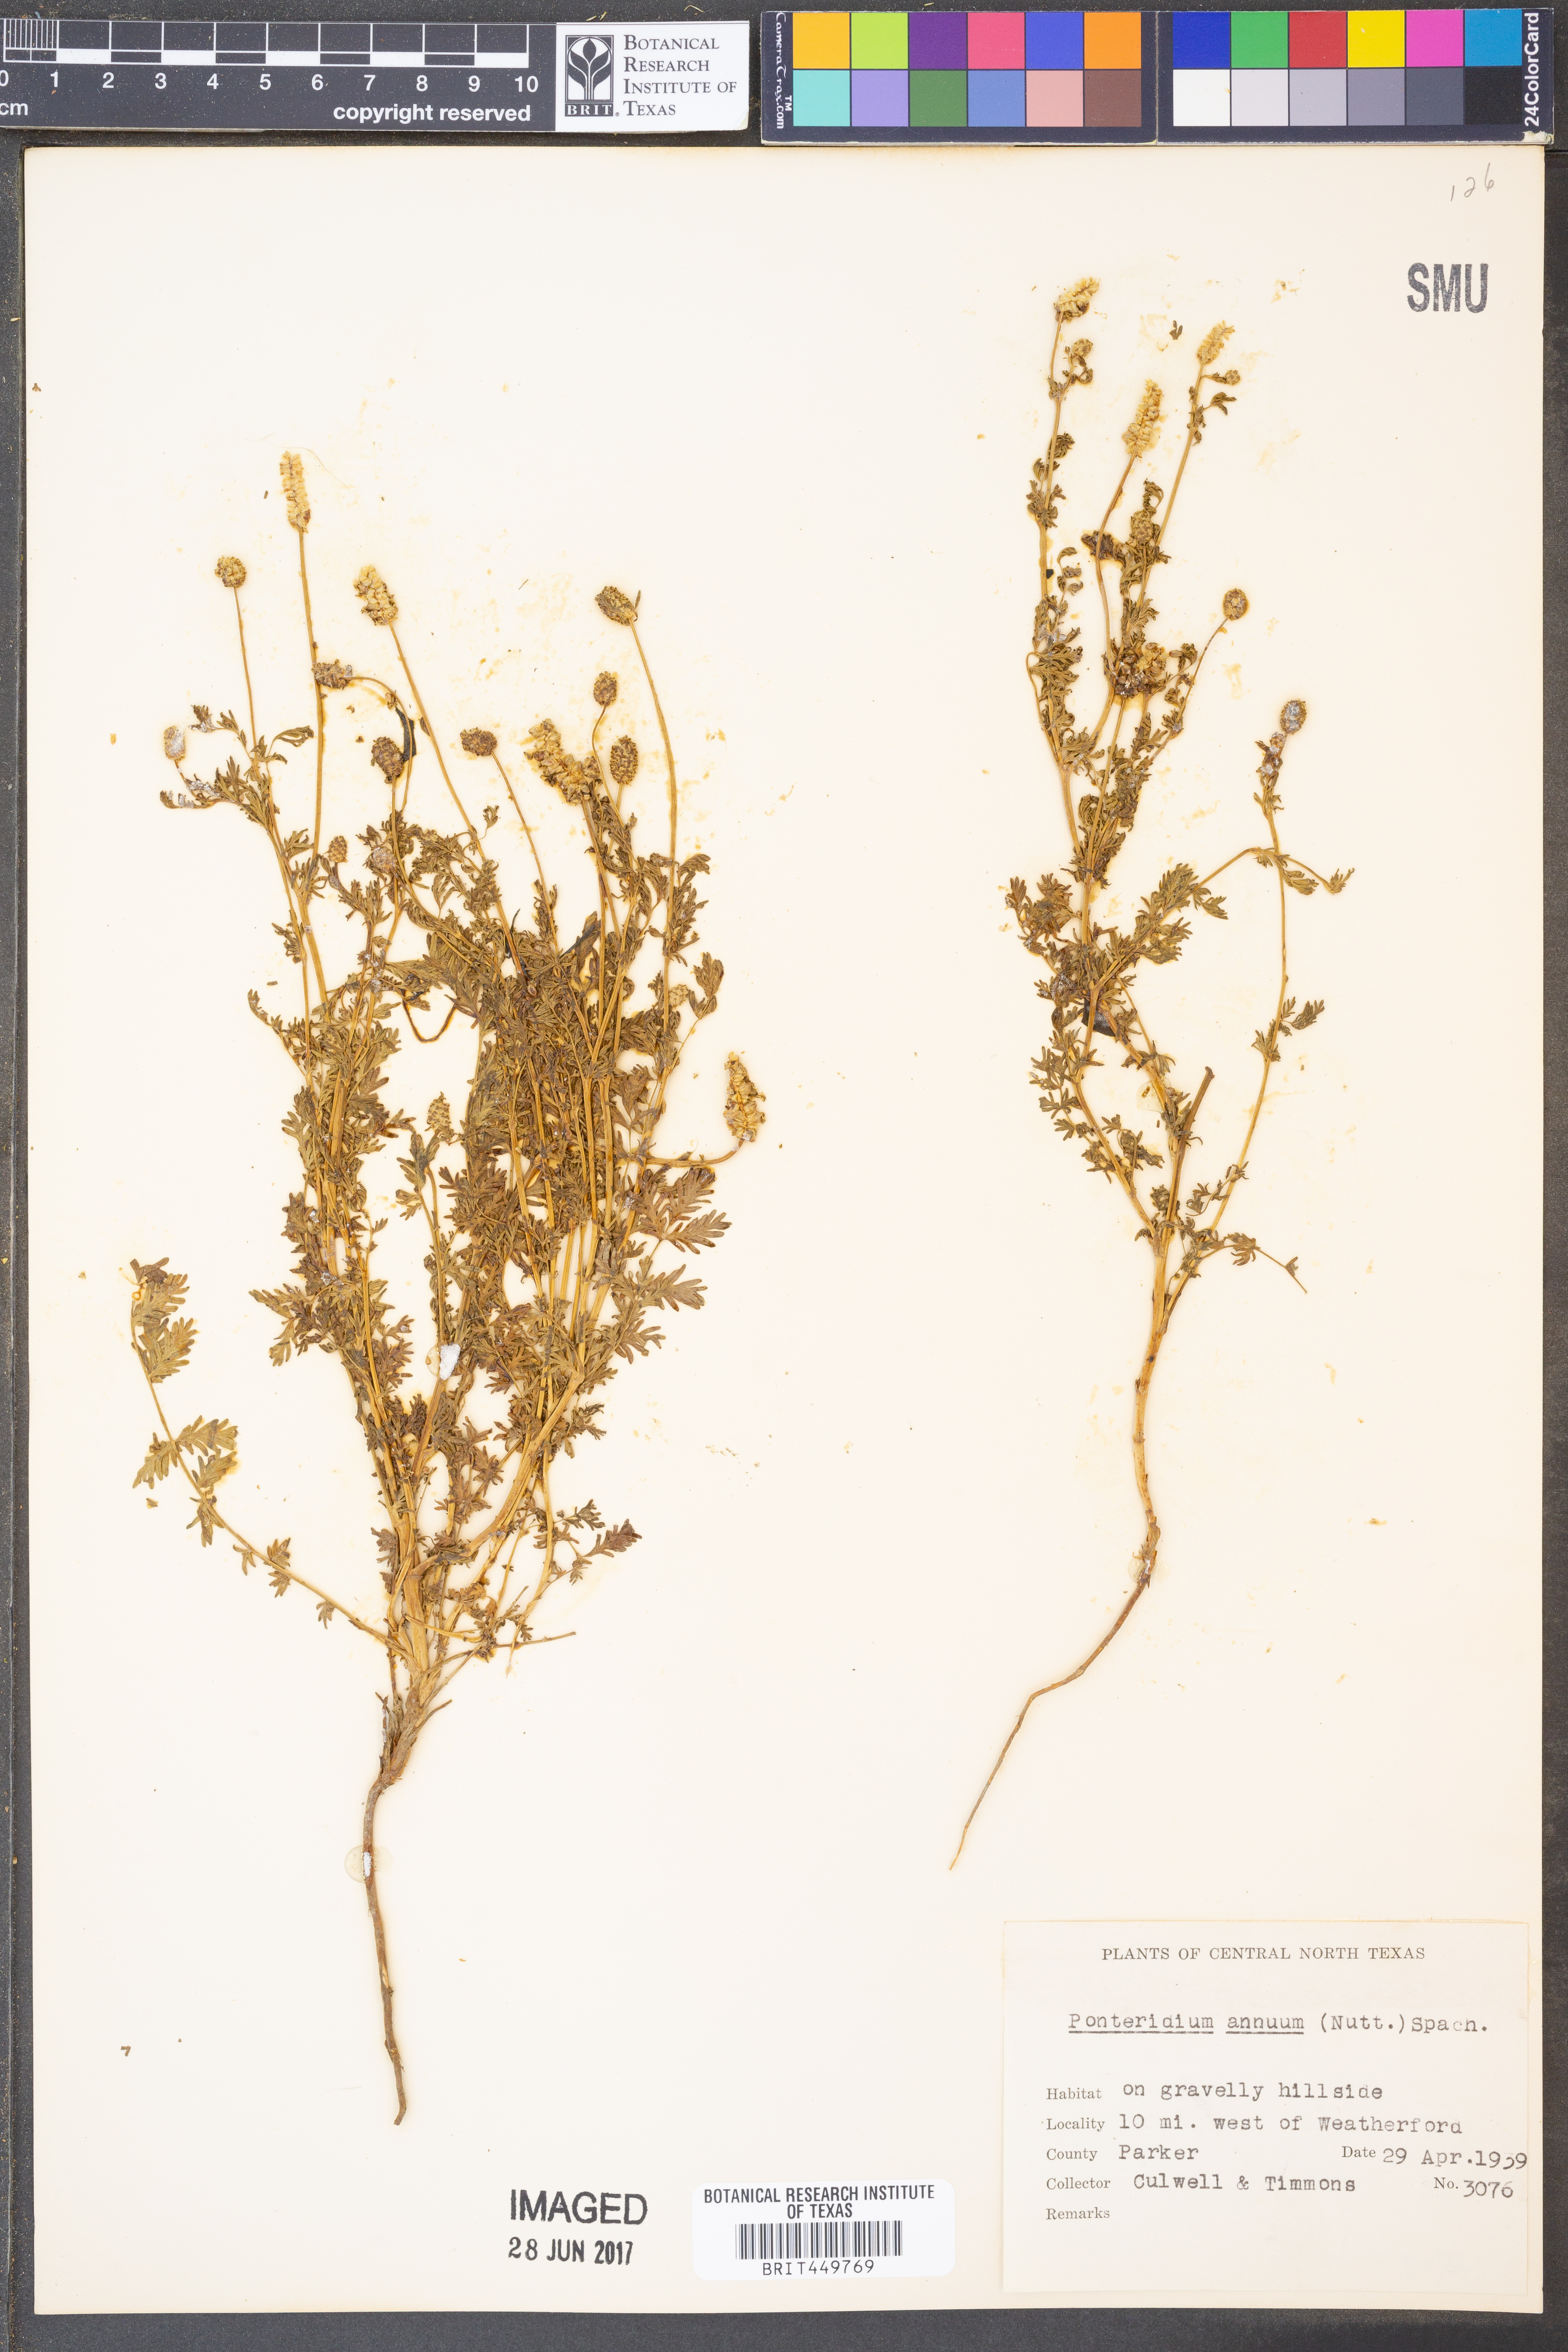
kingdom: Plantae
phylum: Tracheophyta
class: Magnoliopsida
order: Rosales
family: Rosaceae
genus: Poteridium
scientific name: Poteridium annuum
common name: Annual burnet
